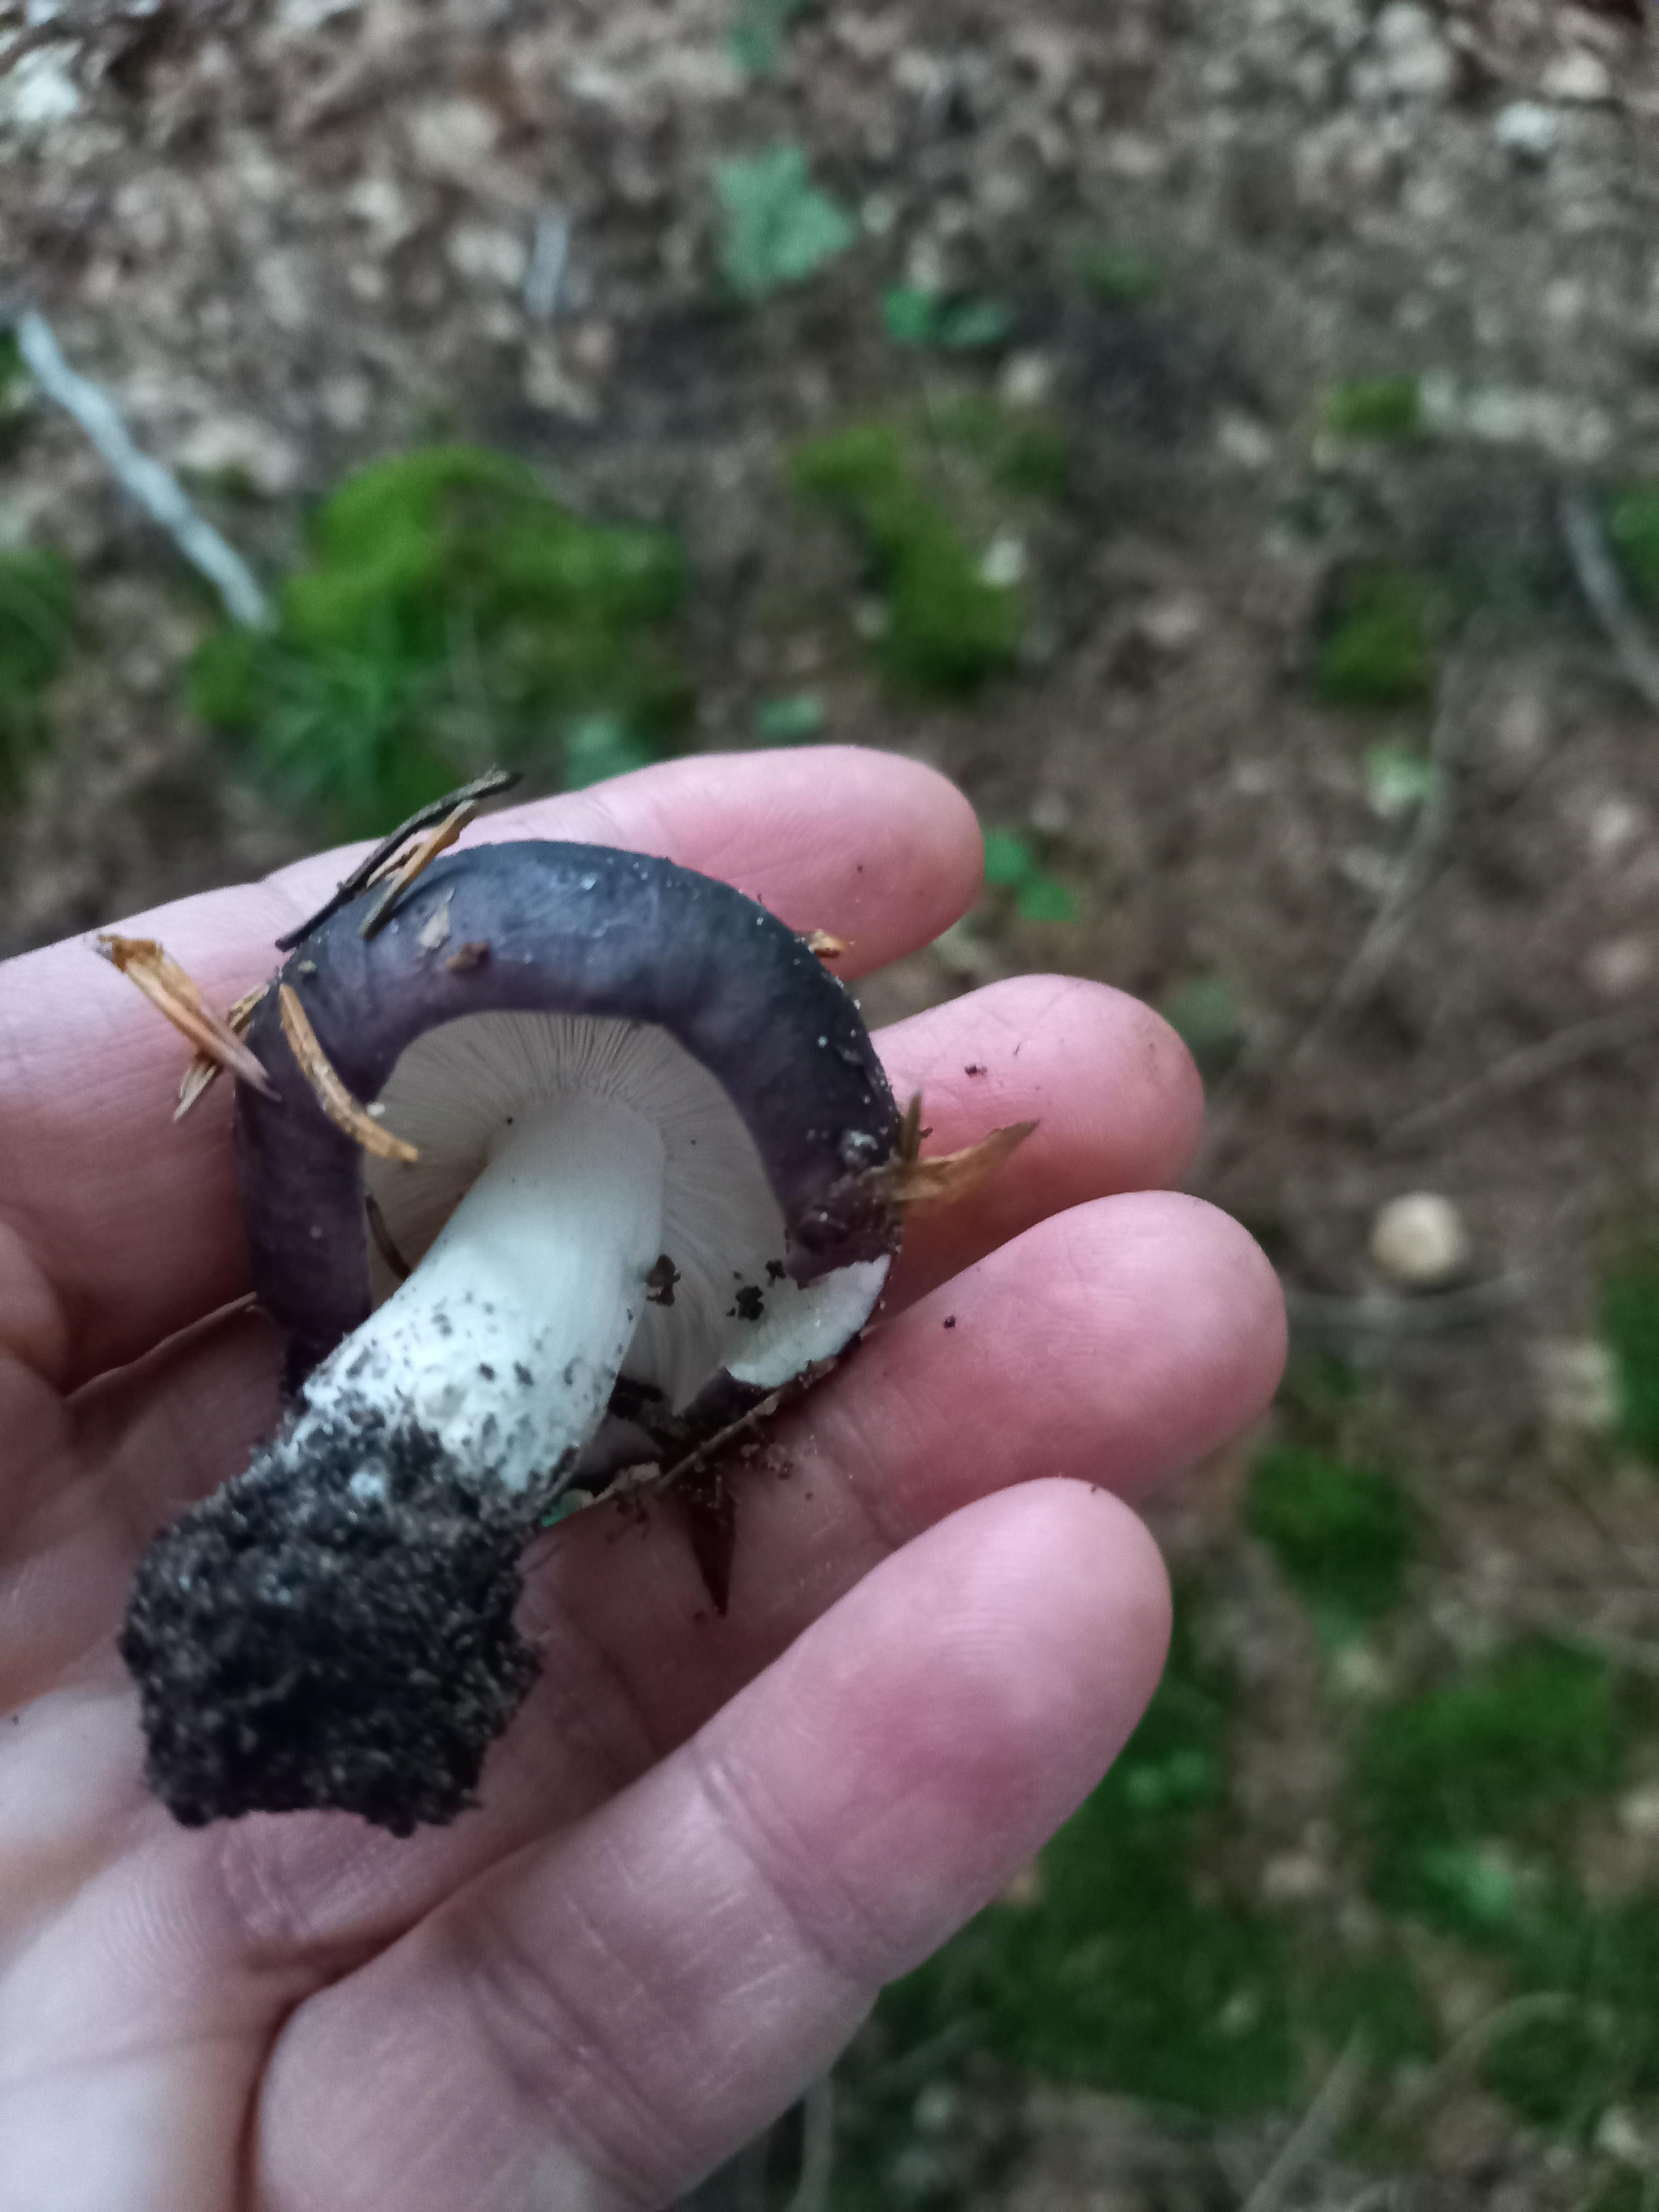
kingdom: Fungi
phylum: Basidiomycota
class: Agaricomycetes
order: Russulales
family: Russulaceae
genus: Russula
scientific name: Russula
